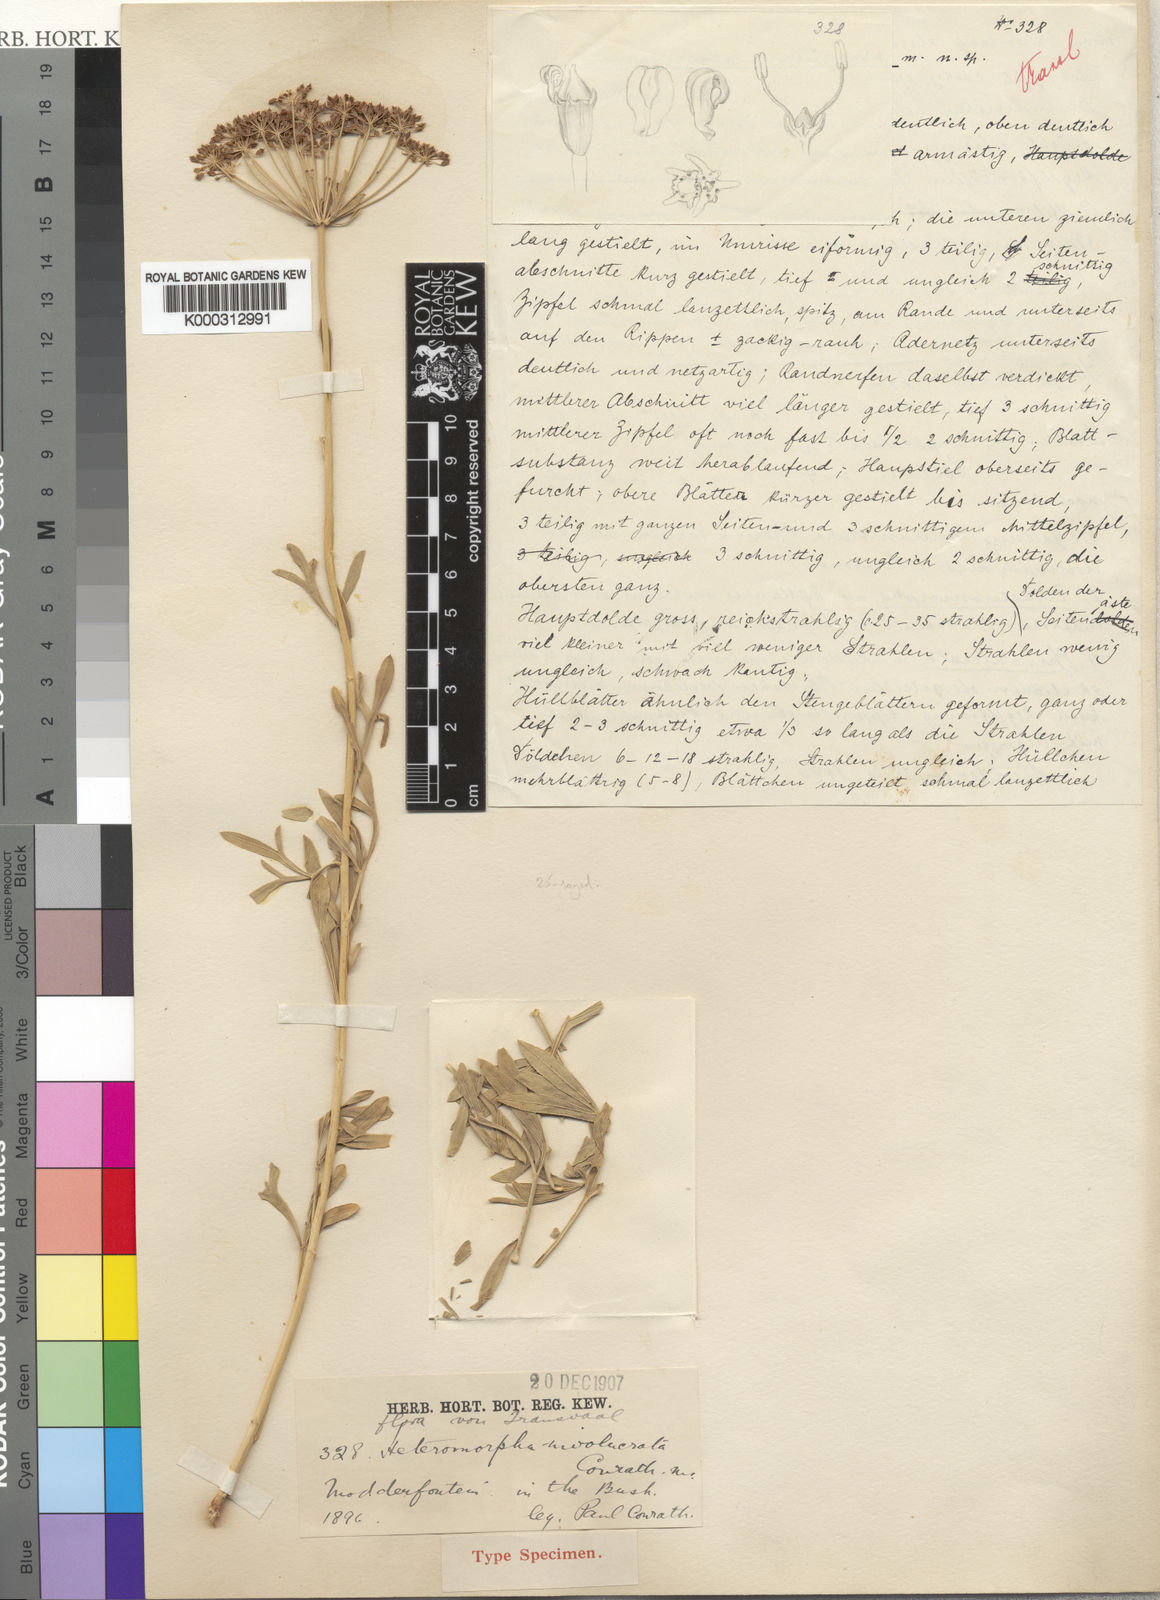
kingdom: Plantae
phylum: Tracheophyta
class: Magnoliopsida
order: Apiales
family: Apiaceae
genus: Heteromorpha
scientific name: Heteromorpha involucrata
